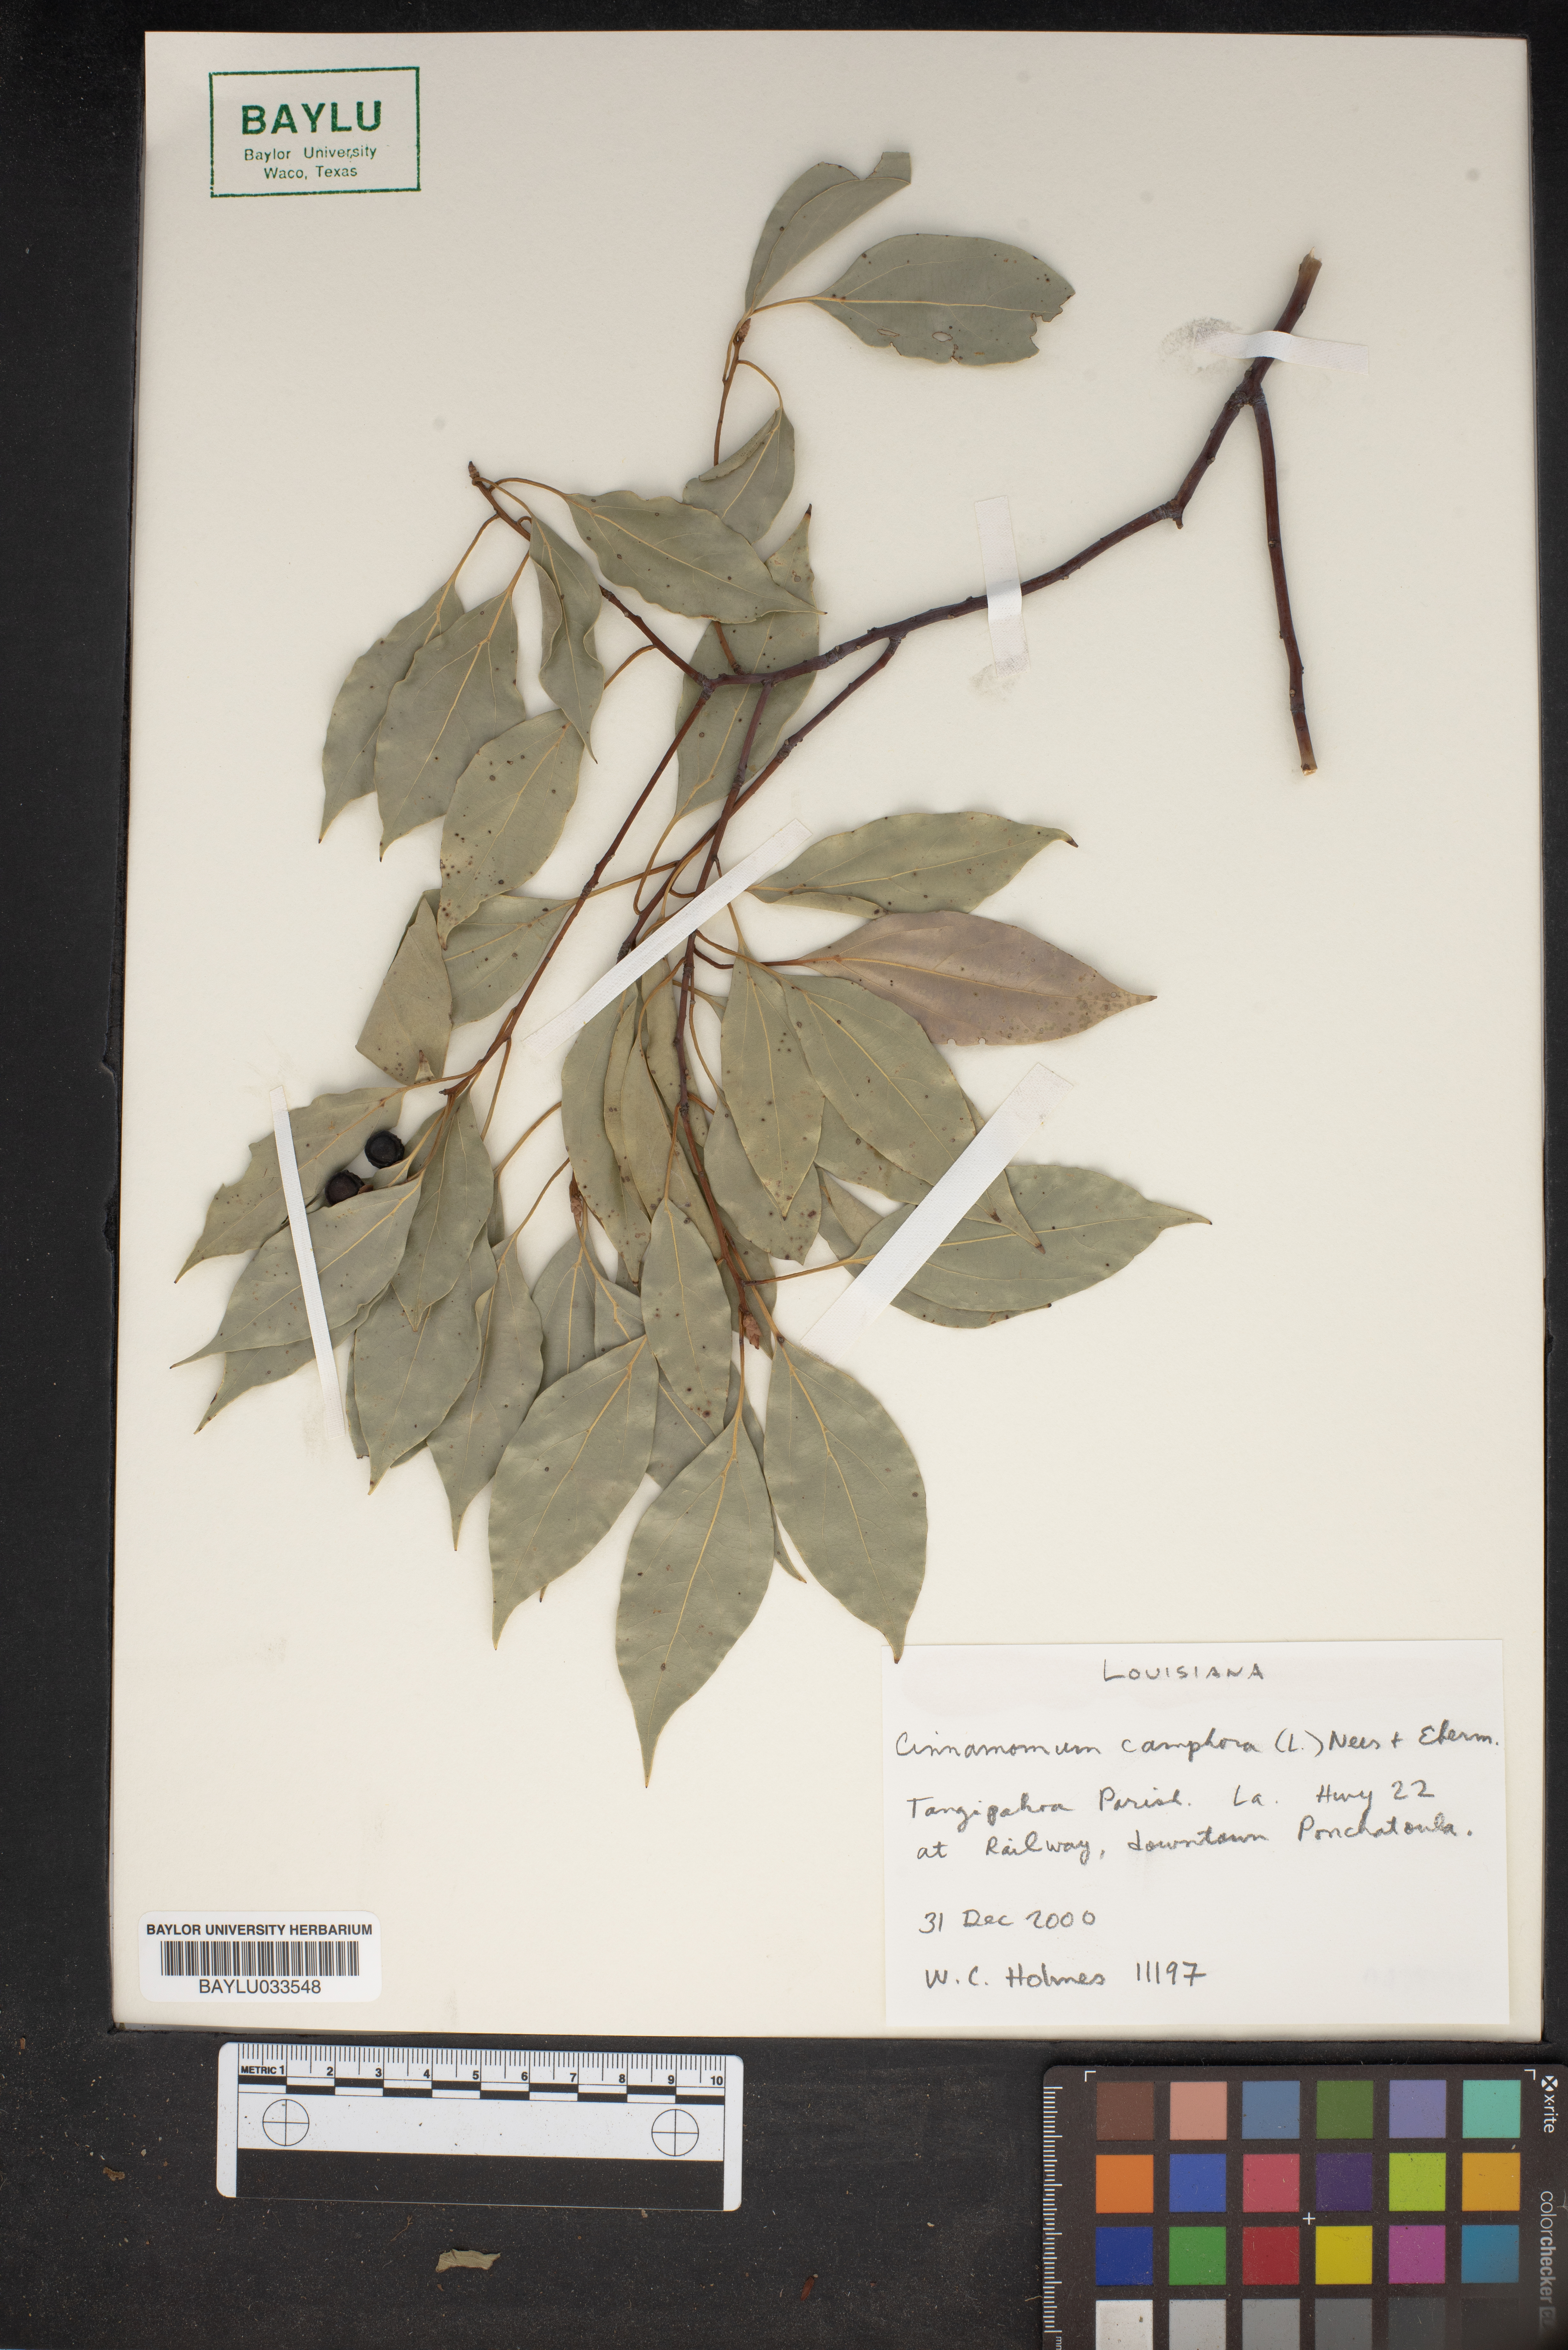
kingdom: Plantae
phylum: Tracheophyta
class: Magnoliopsida
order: Laurales
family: Lauraceae
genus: Cinnamomum
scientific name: Cinnamomum camphora
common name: Camphortree
